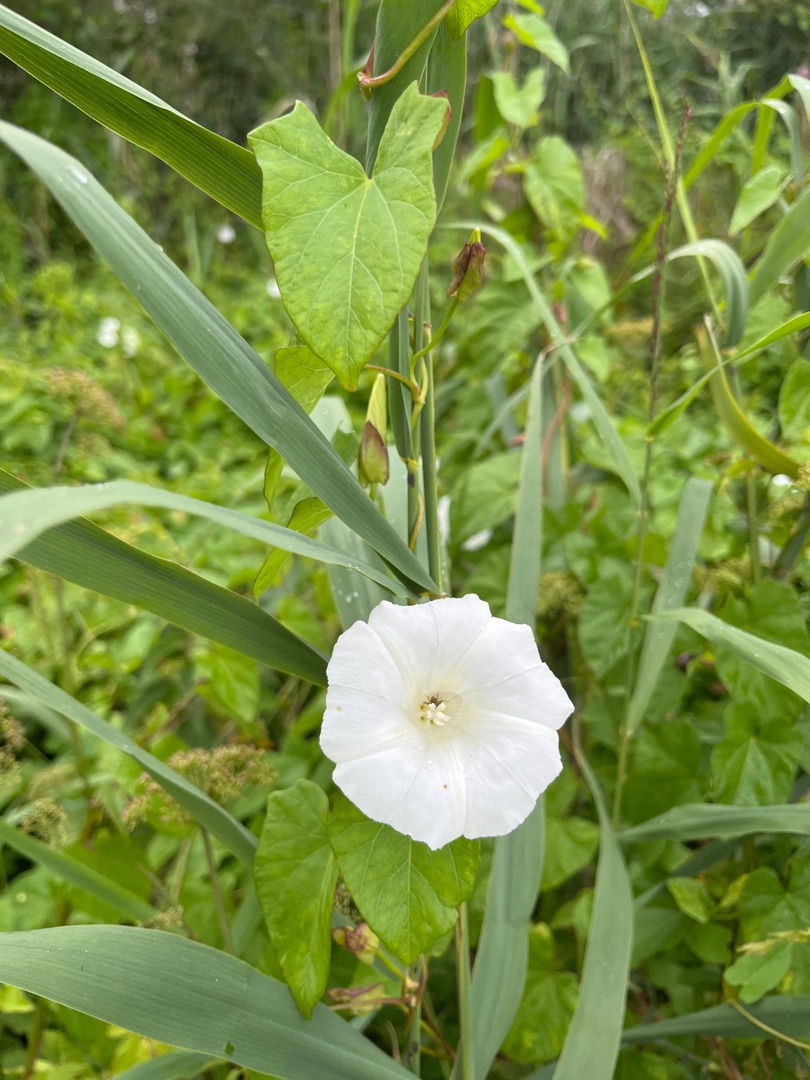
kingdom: Plantae
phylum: Tracheophyta
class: Magnoliopsida
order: Solanales
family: Convolvulaceae
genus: Calystegia
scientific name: Calystegia sepium
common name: Gærde-snerle
